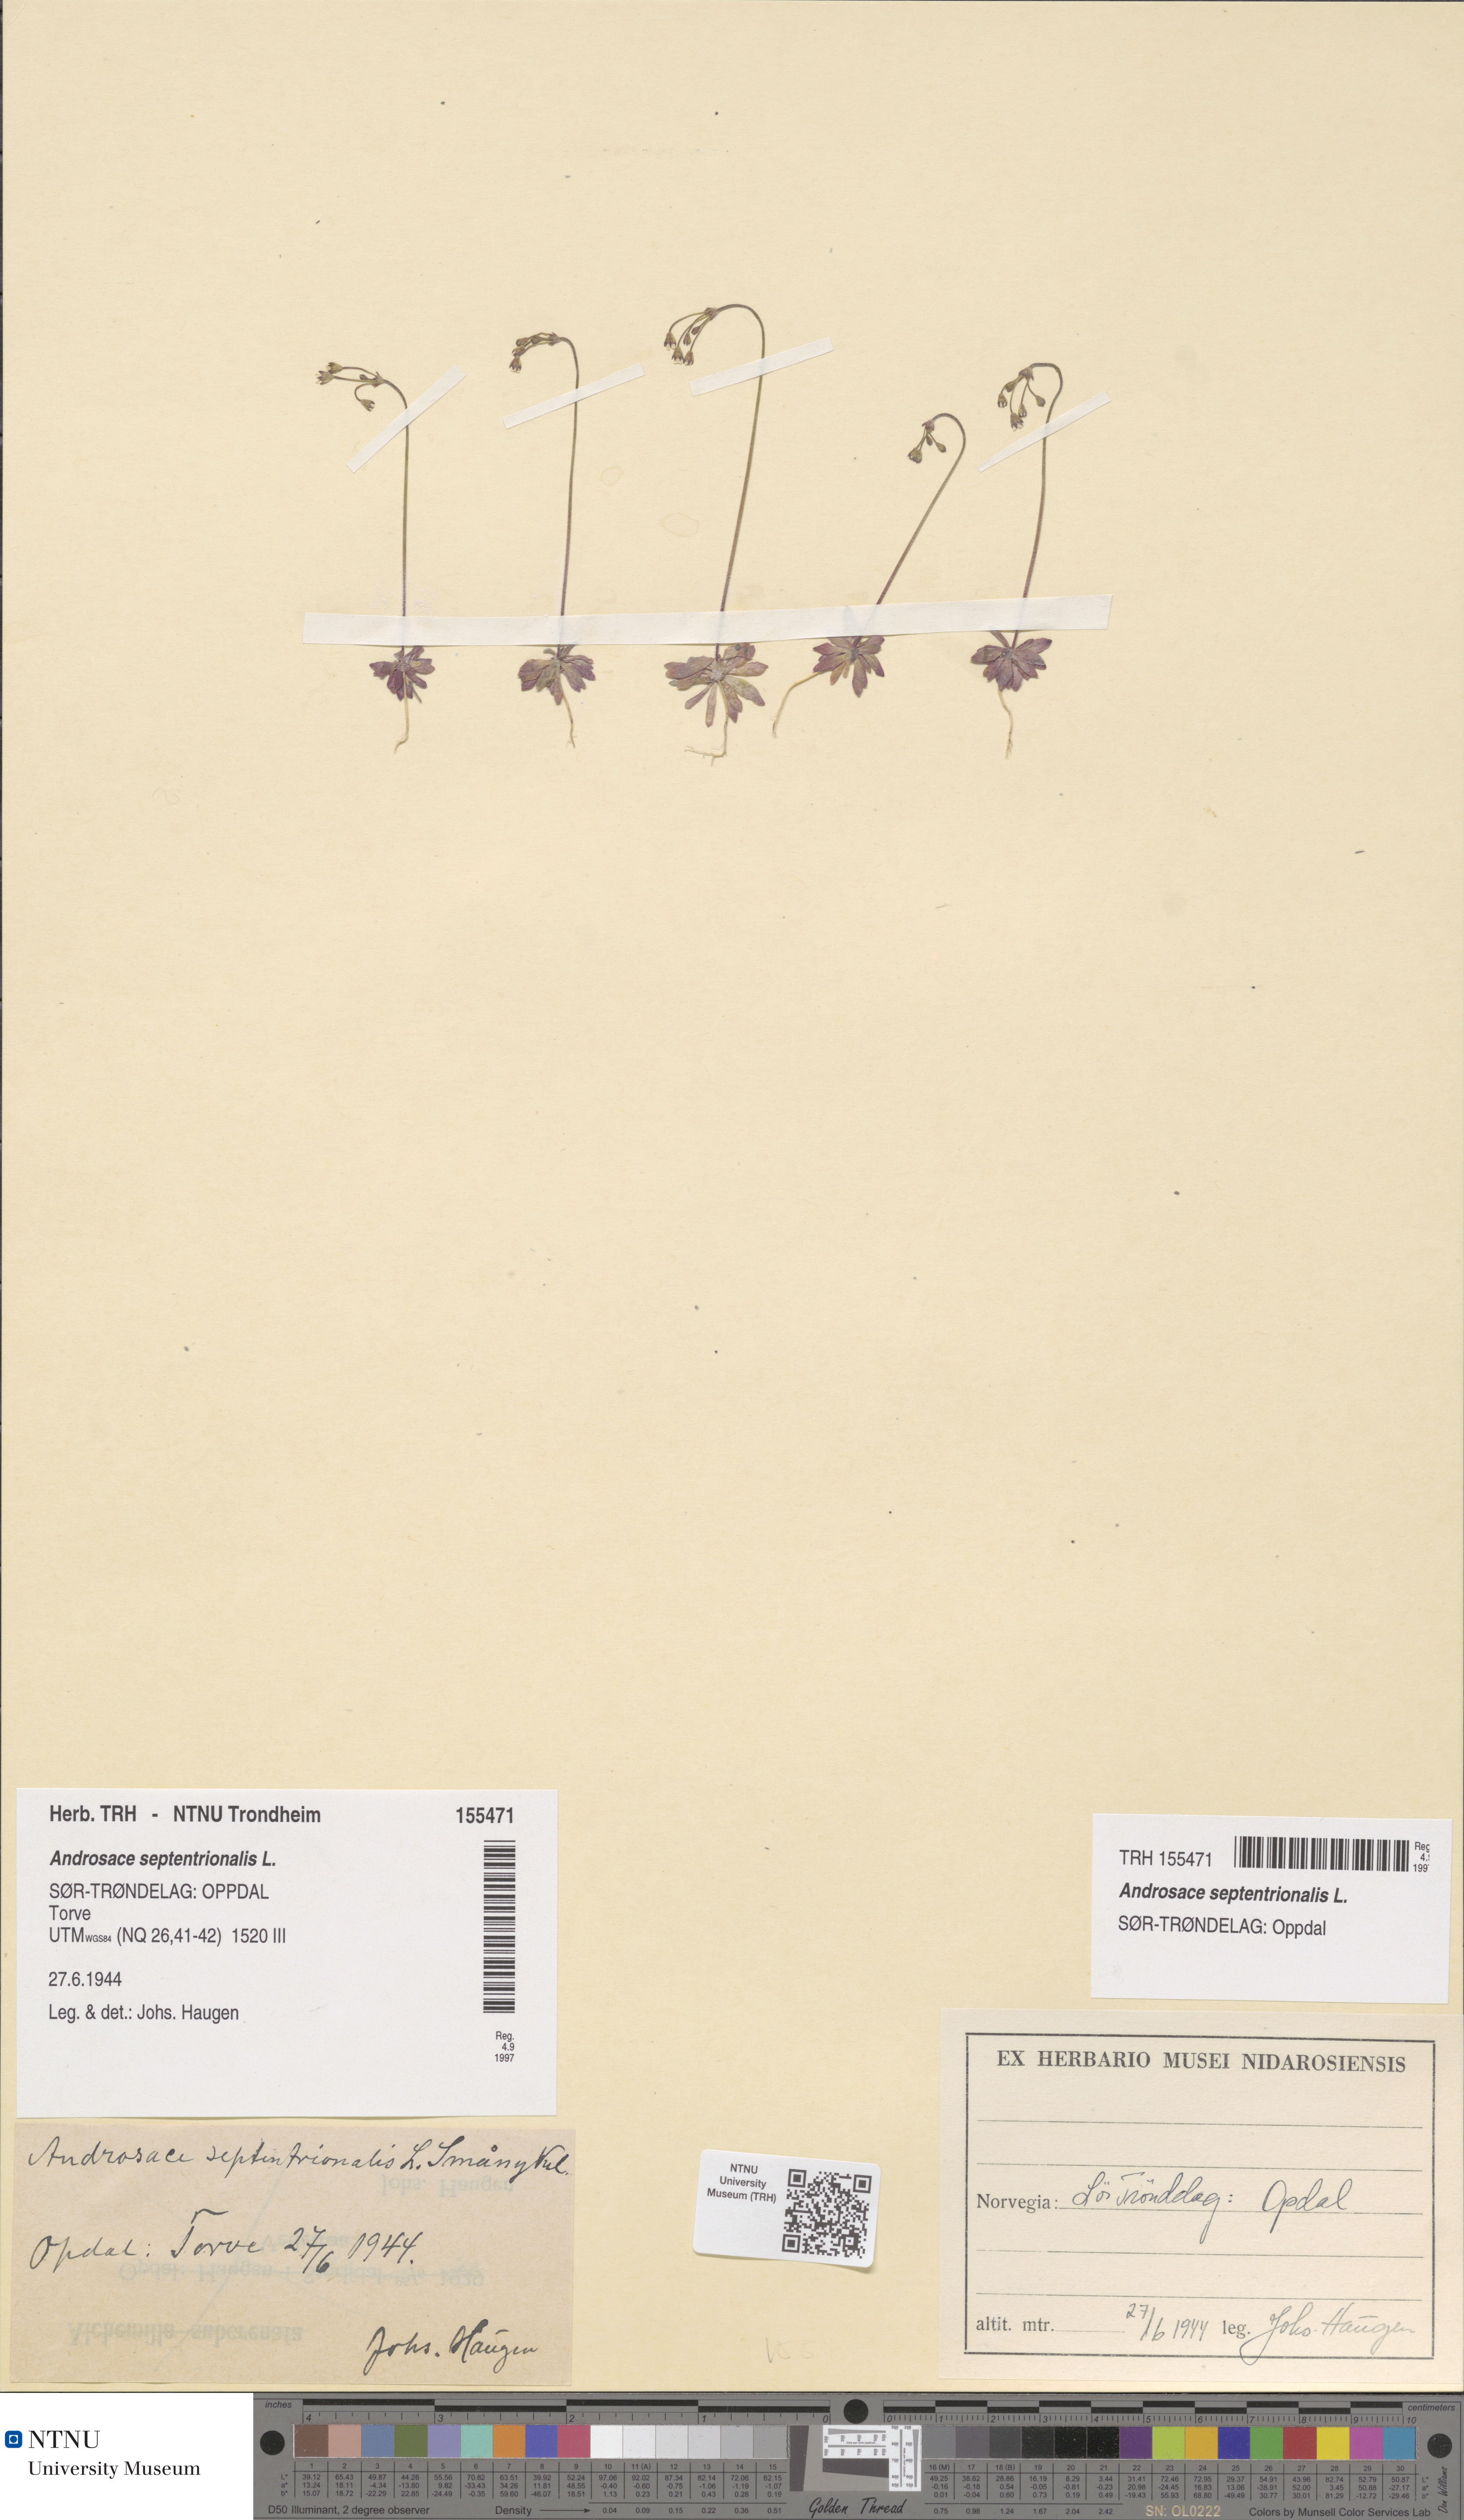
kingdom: Plantae
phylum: Tracheophyta
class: Magnoliopsida
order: Ericales
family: Primulaceae
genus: Androsace
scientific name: Androsace septentrionalis
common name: Hairy northern fairy-candelabra
